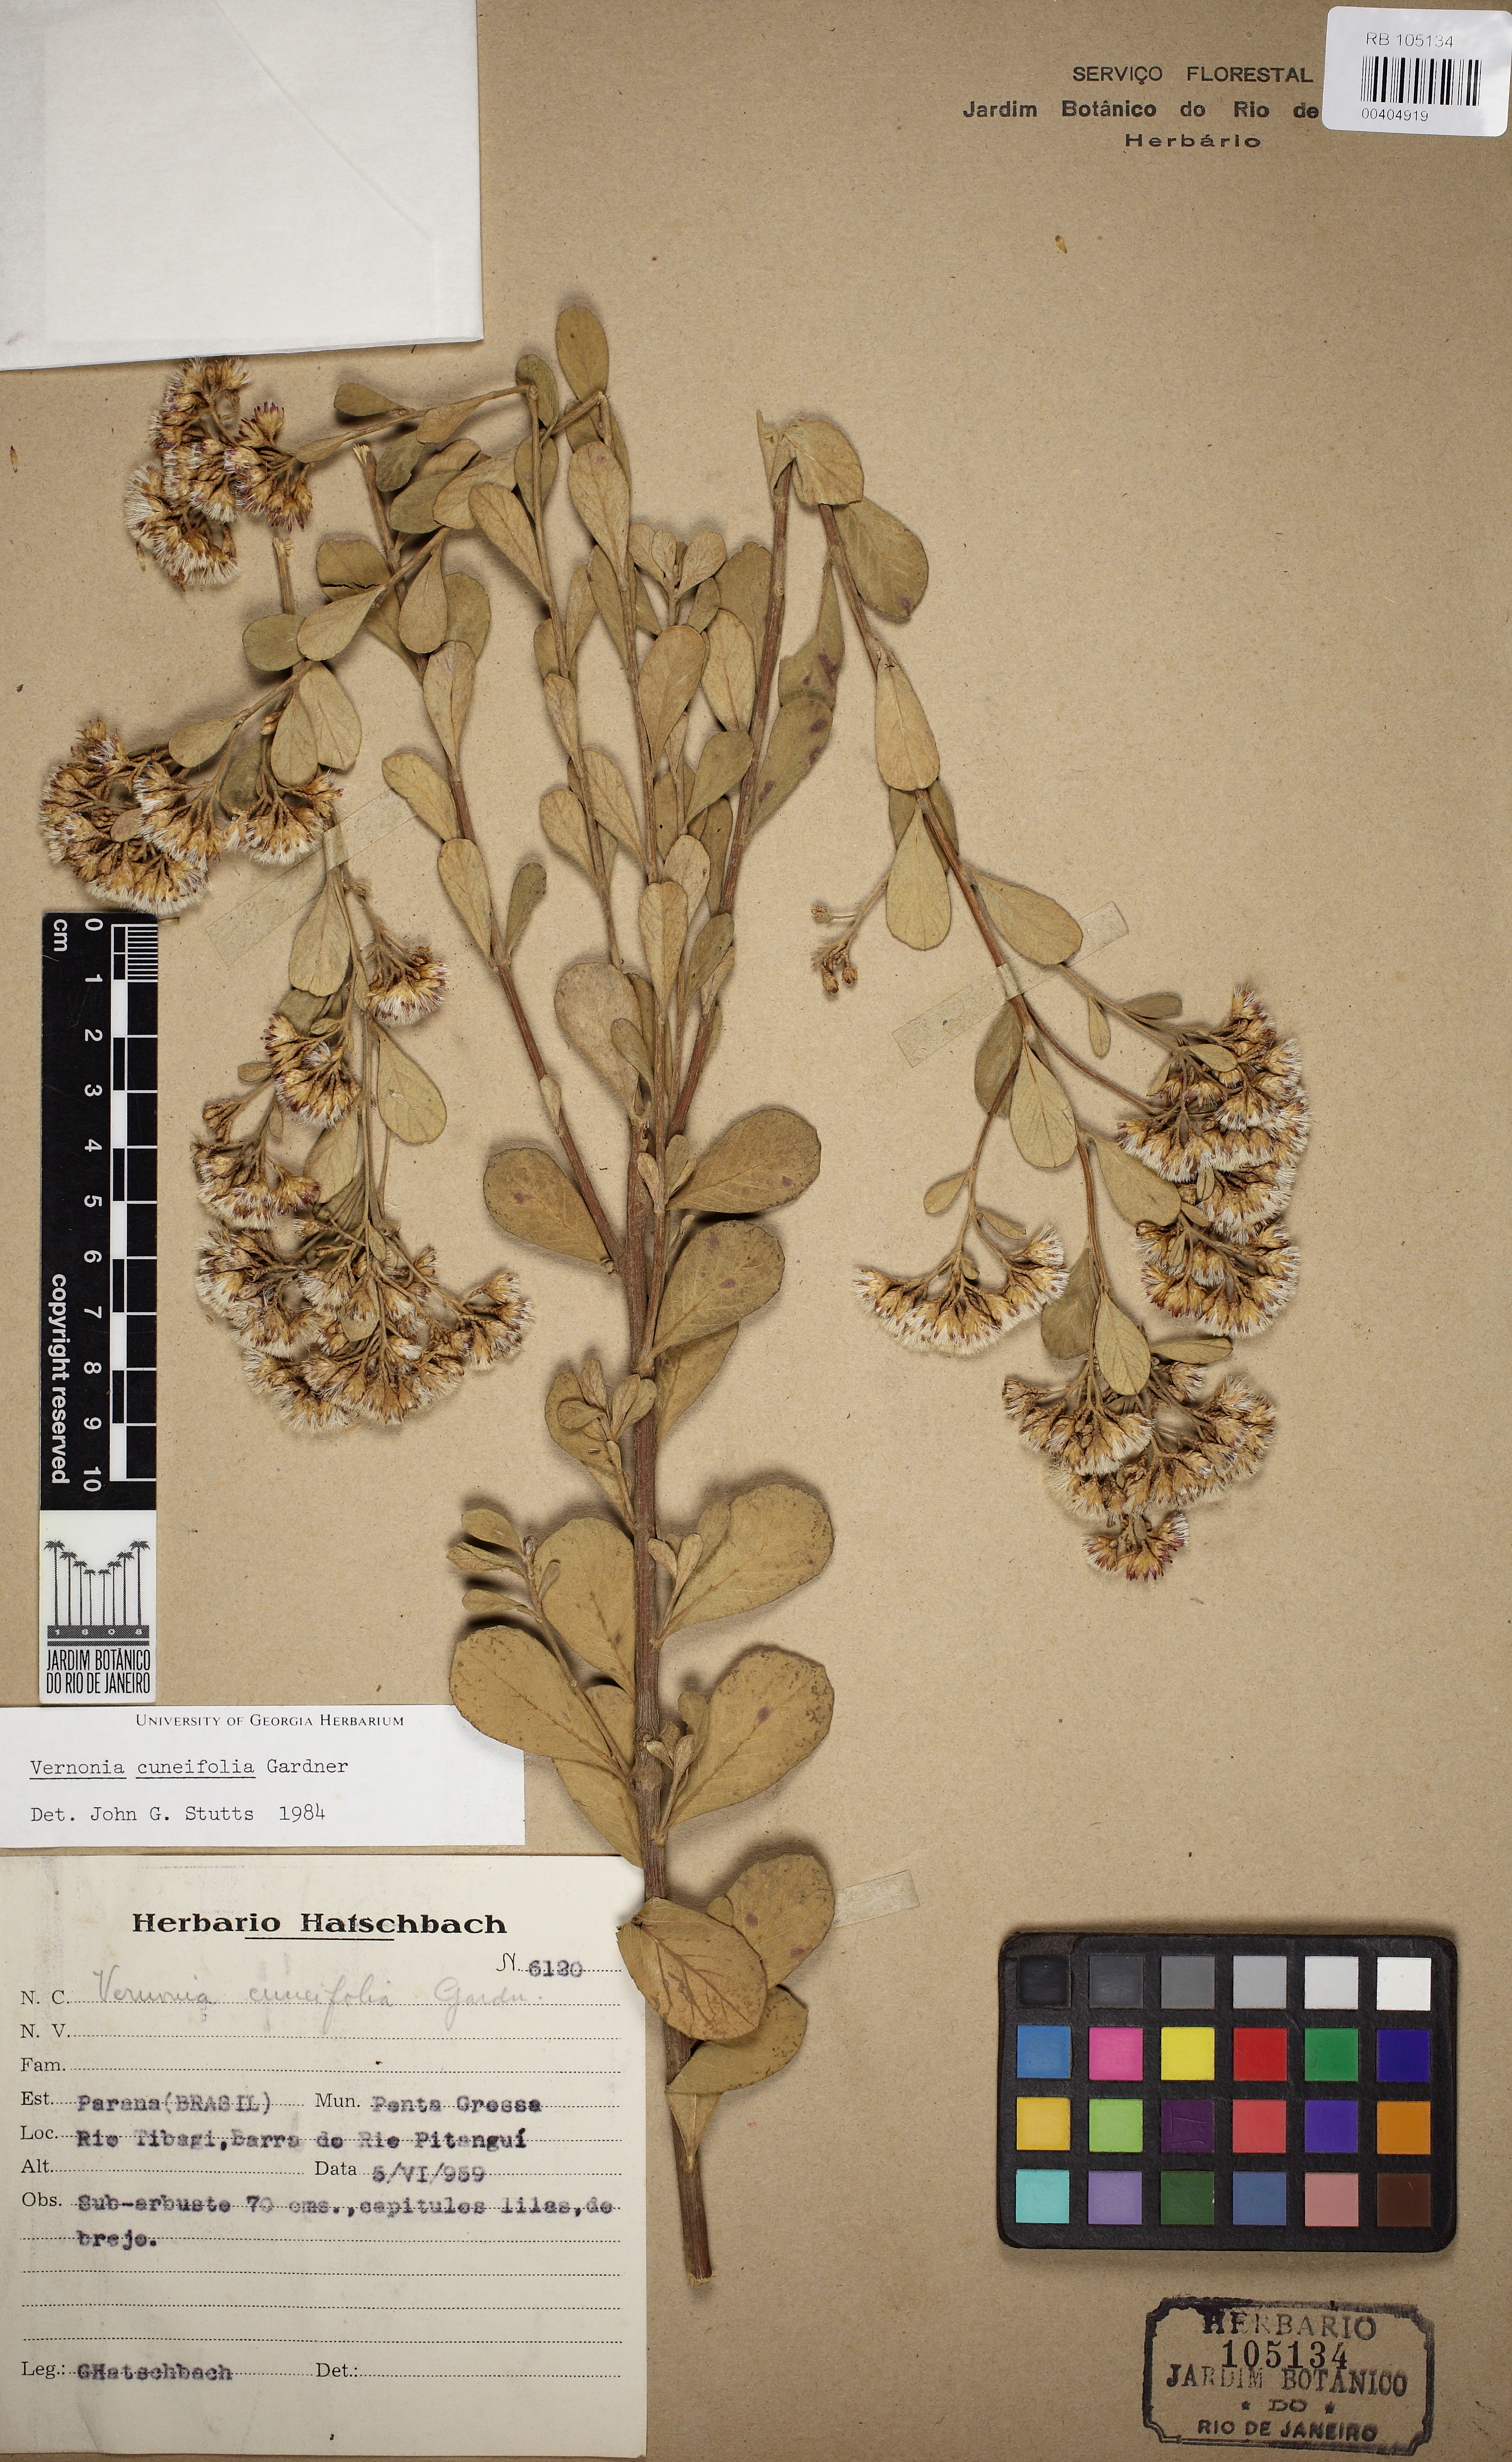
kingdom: Plantae
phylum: Tracheophyta
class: Magnoliopsida
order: Asterales
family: Asteraceae
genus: Vernonanthura
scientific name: Vernonanthura cuneifolia
